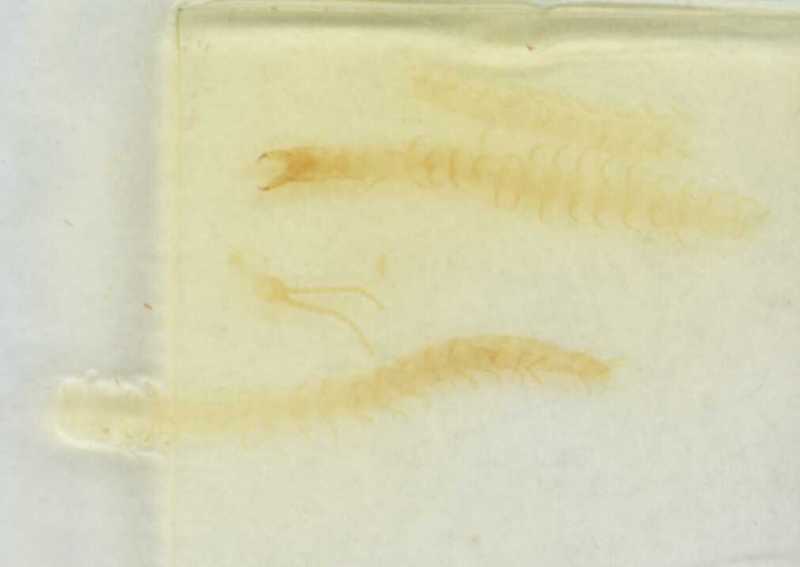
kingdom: Animalia
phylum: Arthropoda
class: Chilopoda
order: Geophilomorpha
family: Geophilidae
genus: Pachymerium
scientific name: Pachymerium ferrugineum
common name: Centipede
